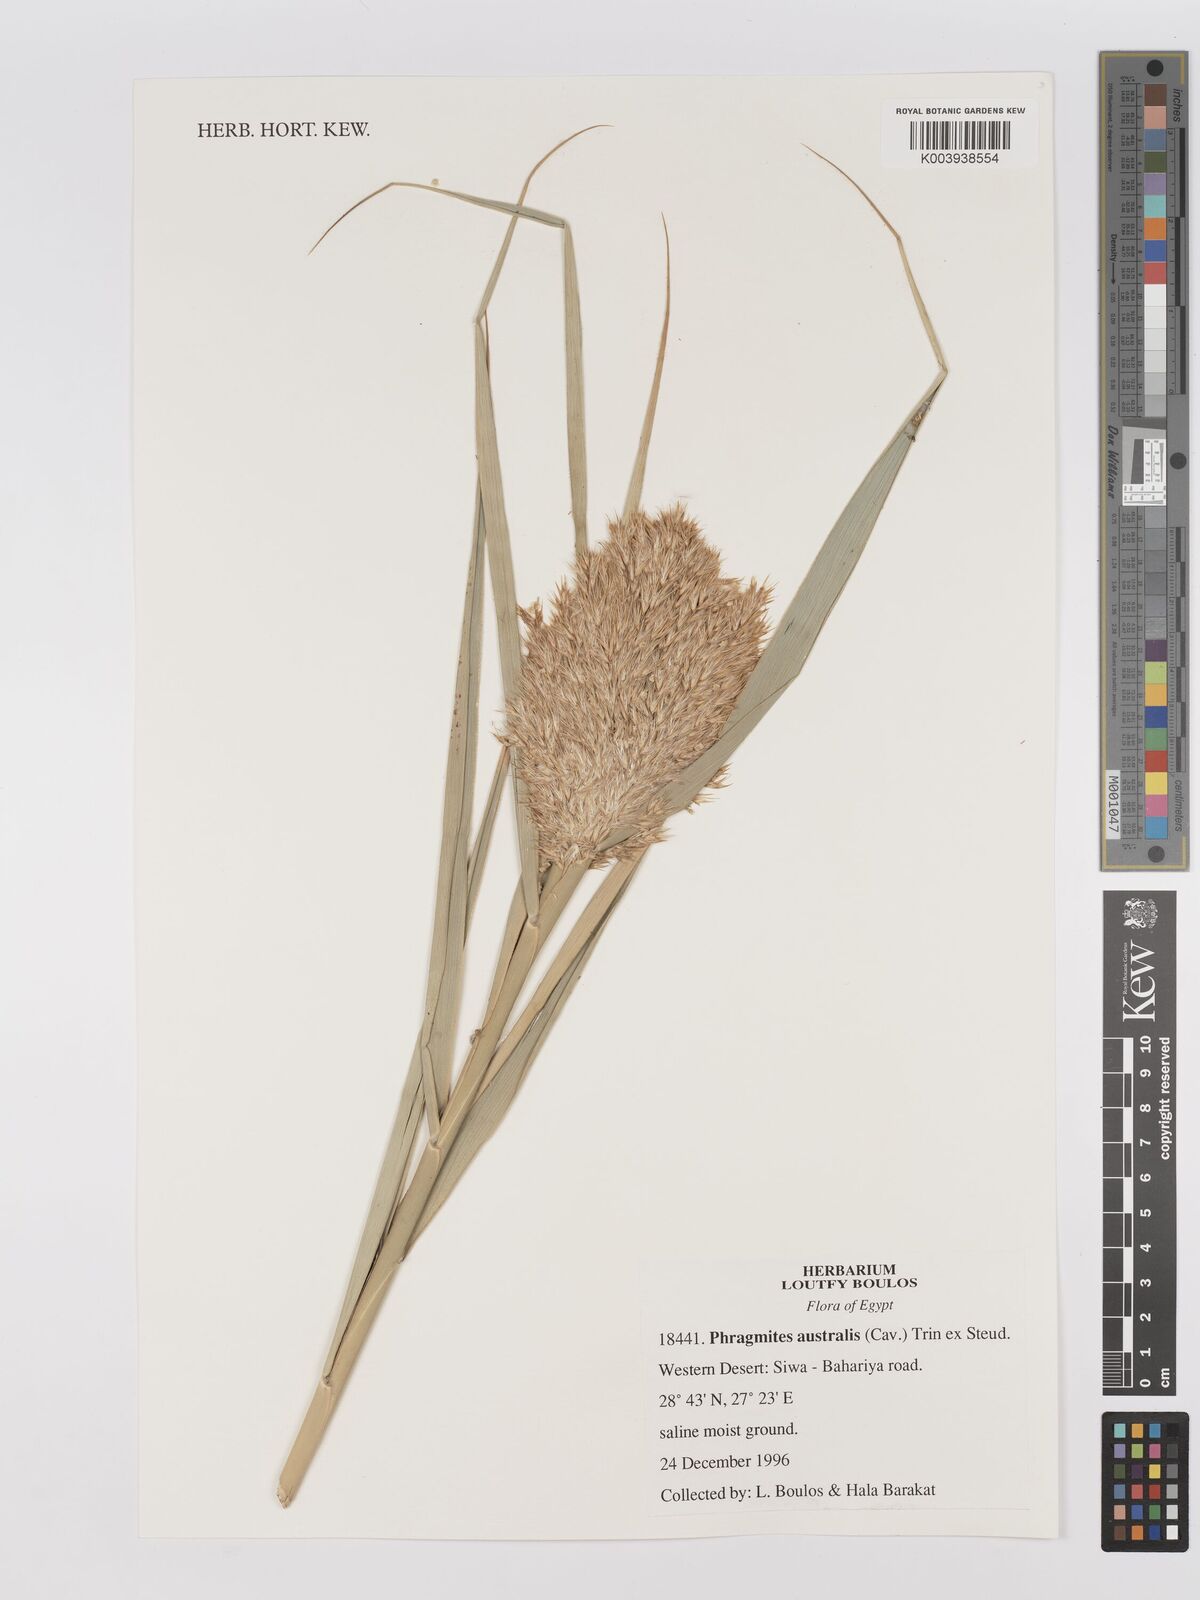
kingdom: Plantae
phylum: Tracheophyta
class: Liliopsida
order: Poales
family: Poaceae
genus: Phragmites
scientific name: Phragmites australis
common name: Common reed
